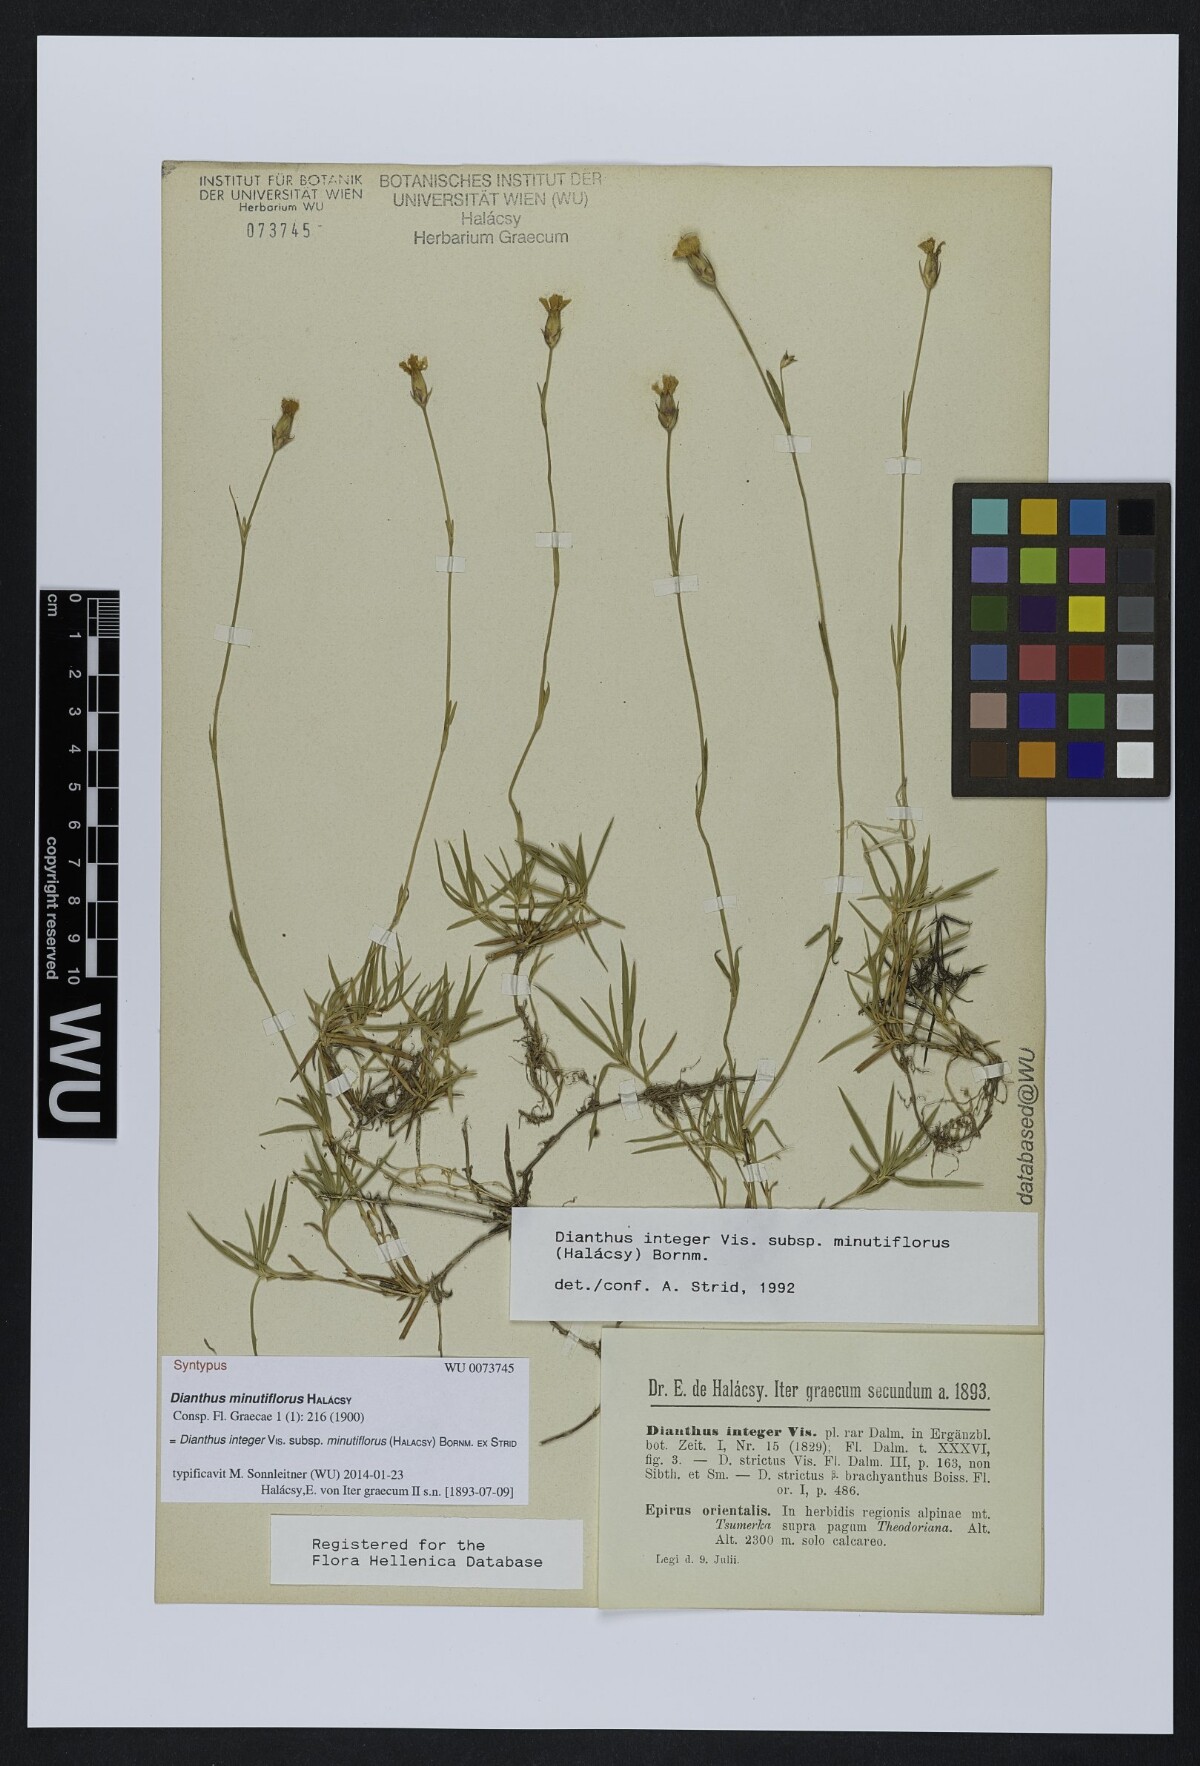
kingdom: Plantae
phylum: Tracheophyta
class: Magnoliopsida
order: Caryophyllales
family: Caryophyllaceae
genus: Dianthus
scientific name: Dianthus integer
